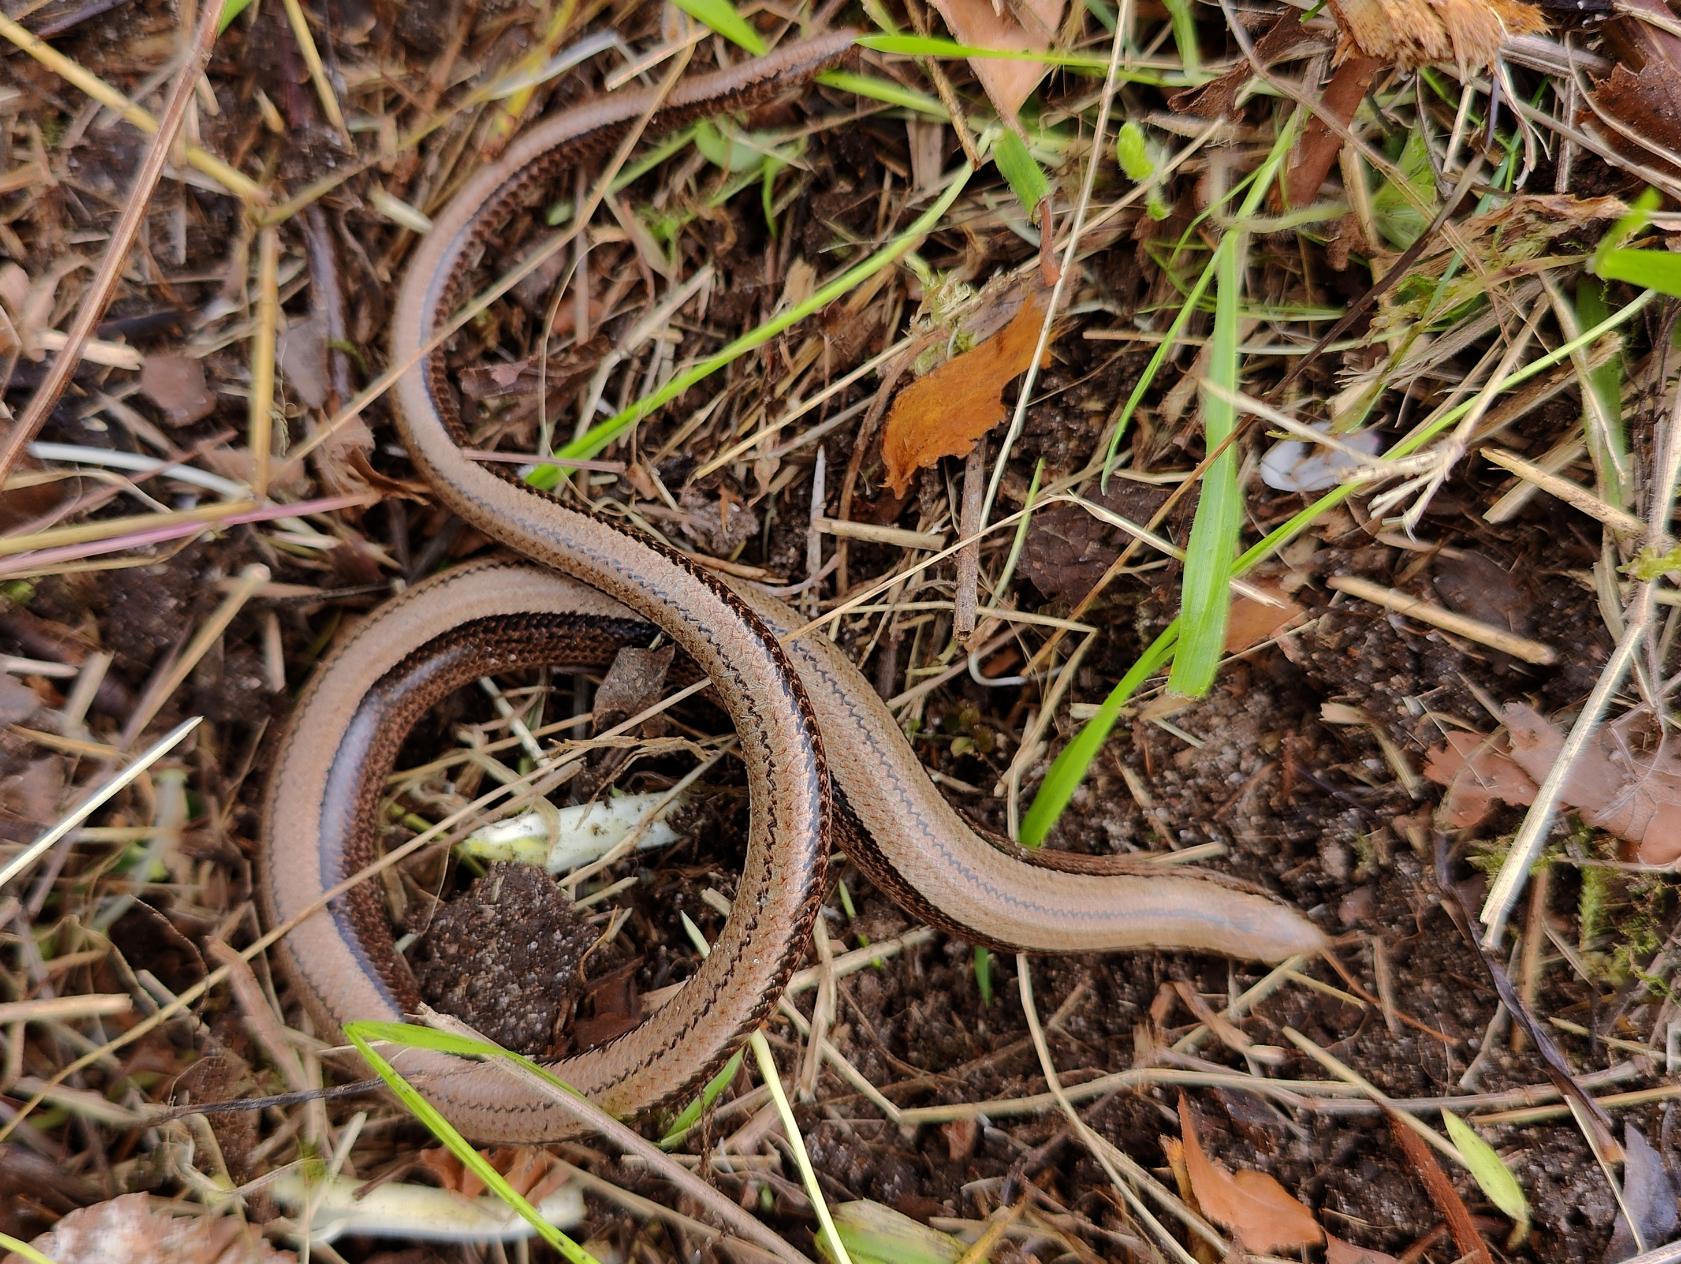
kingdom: Animalia
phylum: Chordata
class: Squamata
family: Anguidae
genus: Anguis
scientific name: Anguis fragilis
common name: Stålorm
